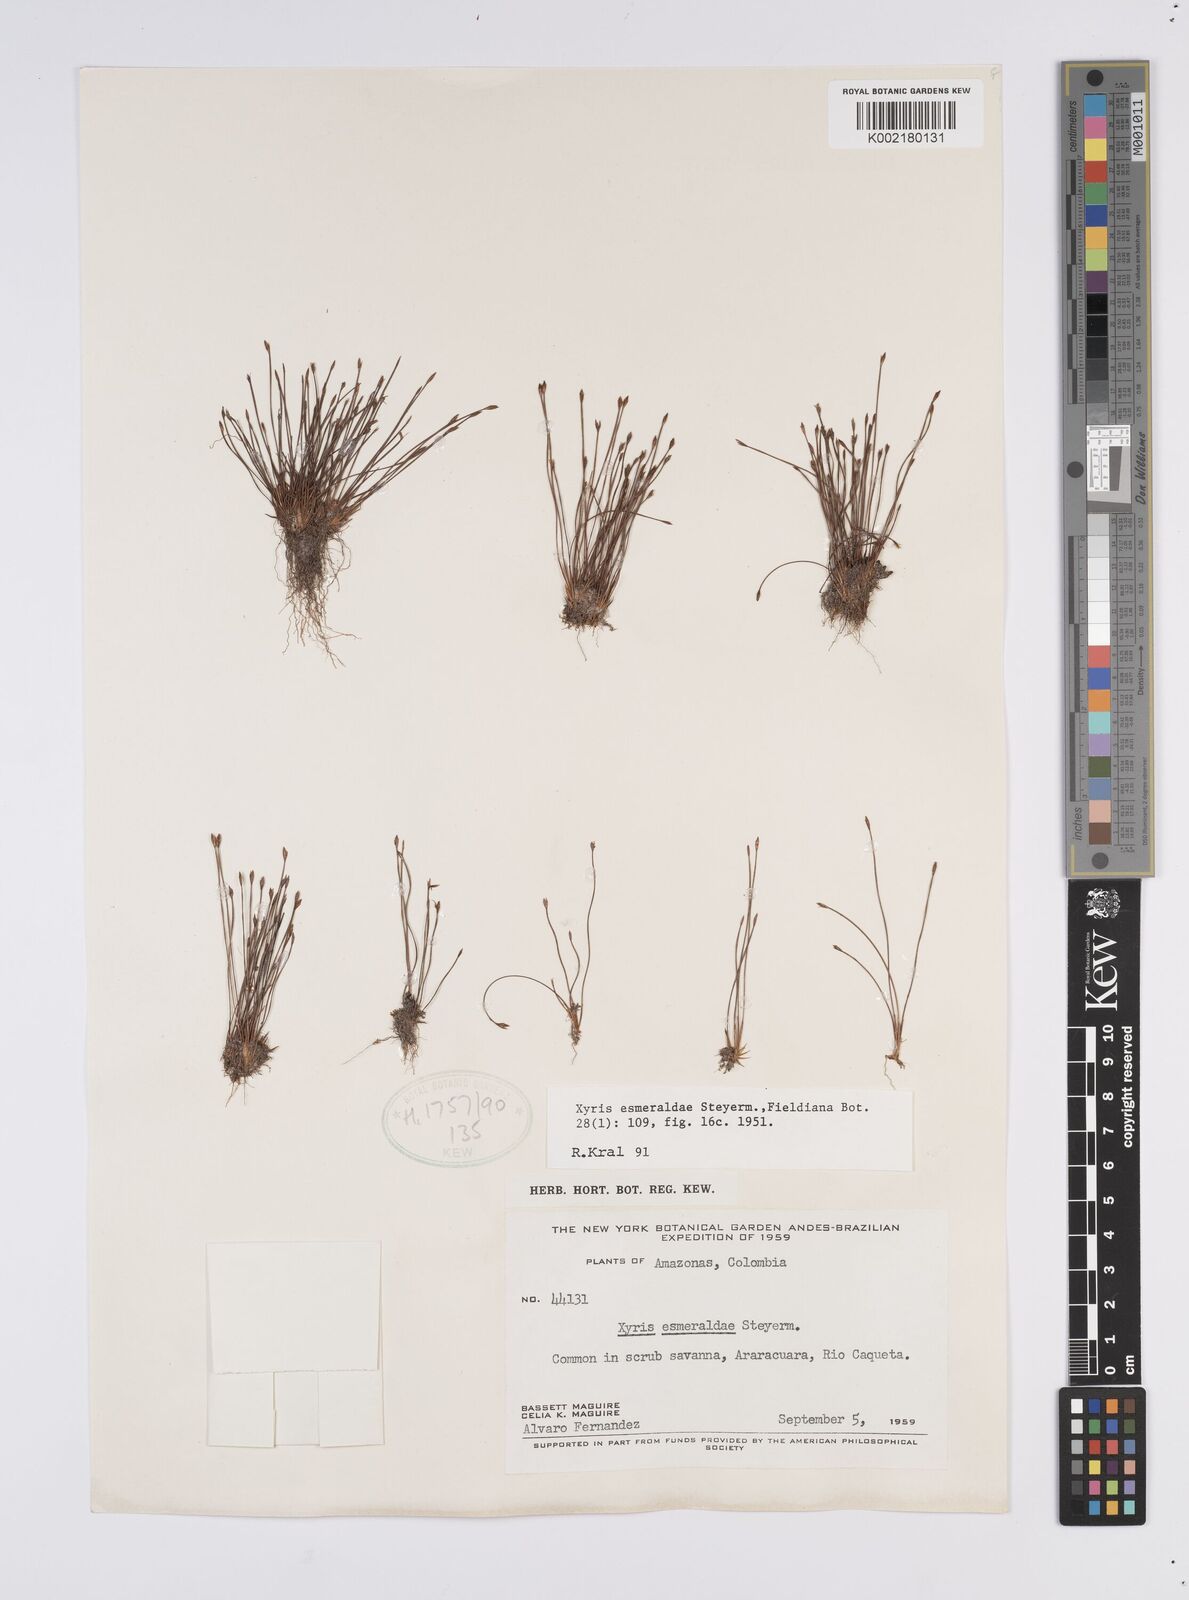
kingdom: Plantae
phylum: Tracheophyta
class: Liliopsida
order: Poales
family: Xyridaceae
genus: Xyris
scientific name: Xyris esmeraldae
